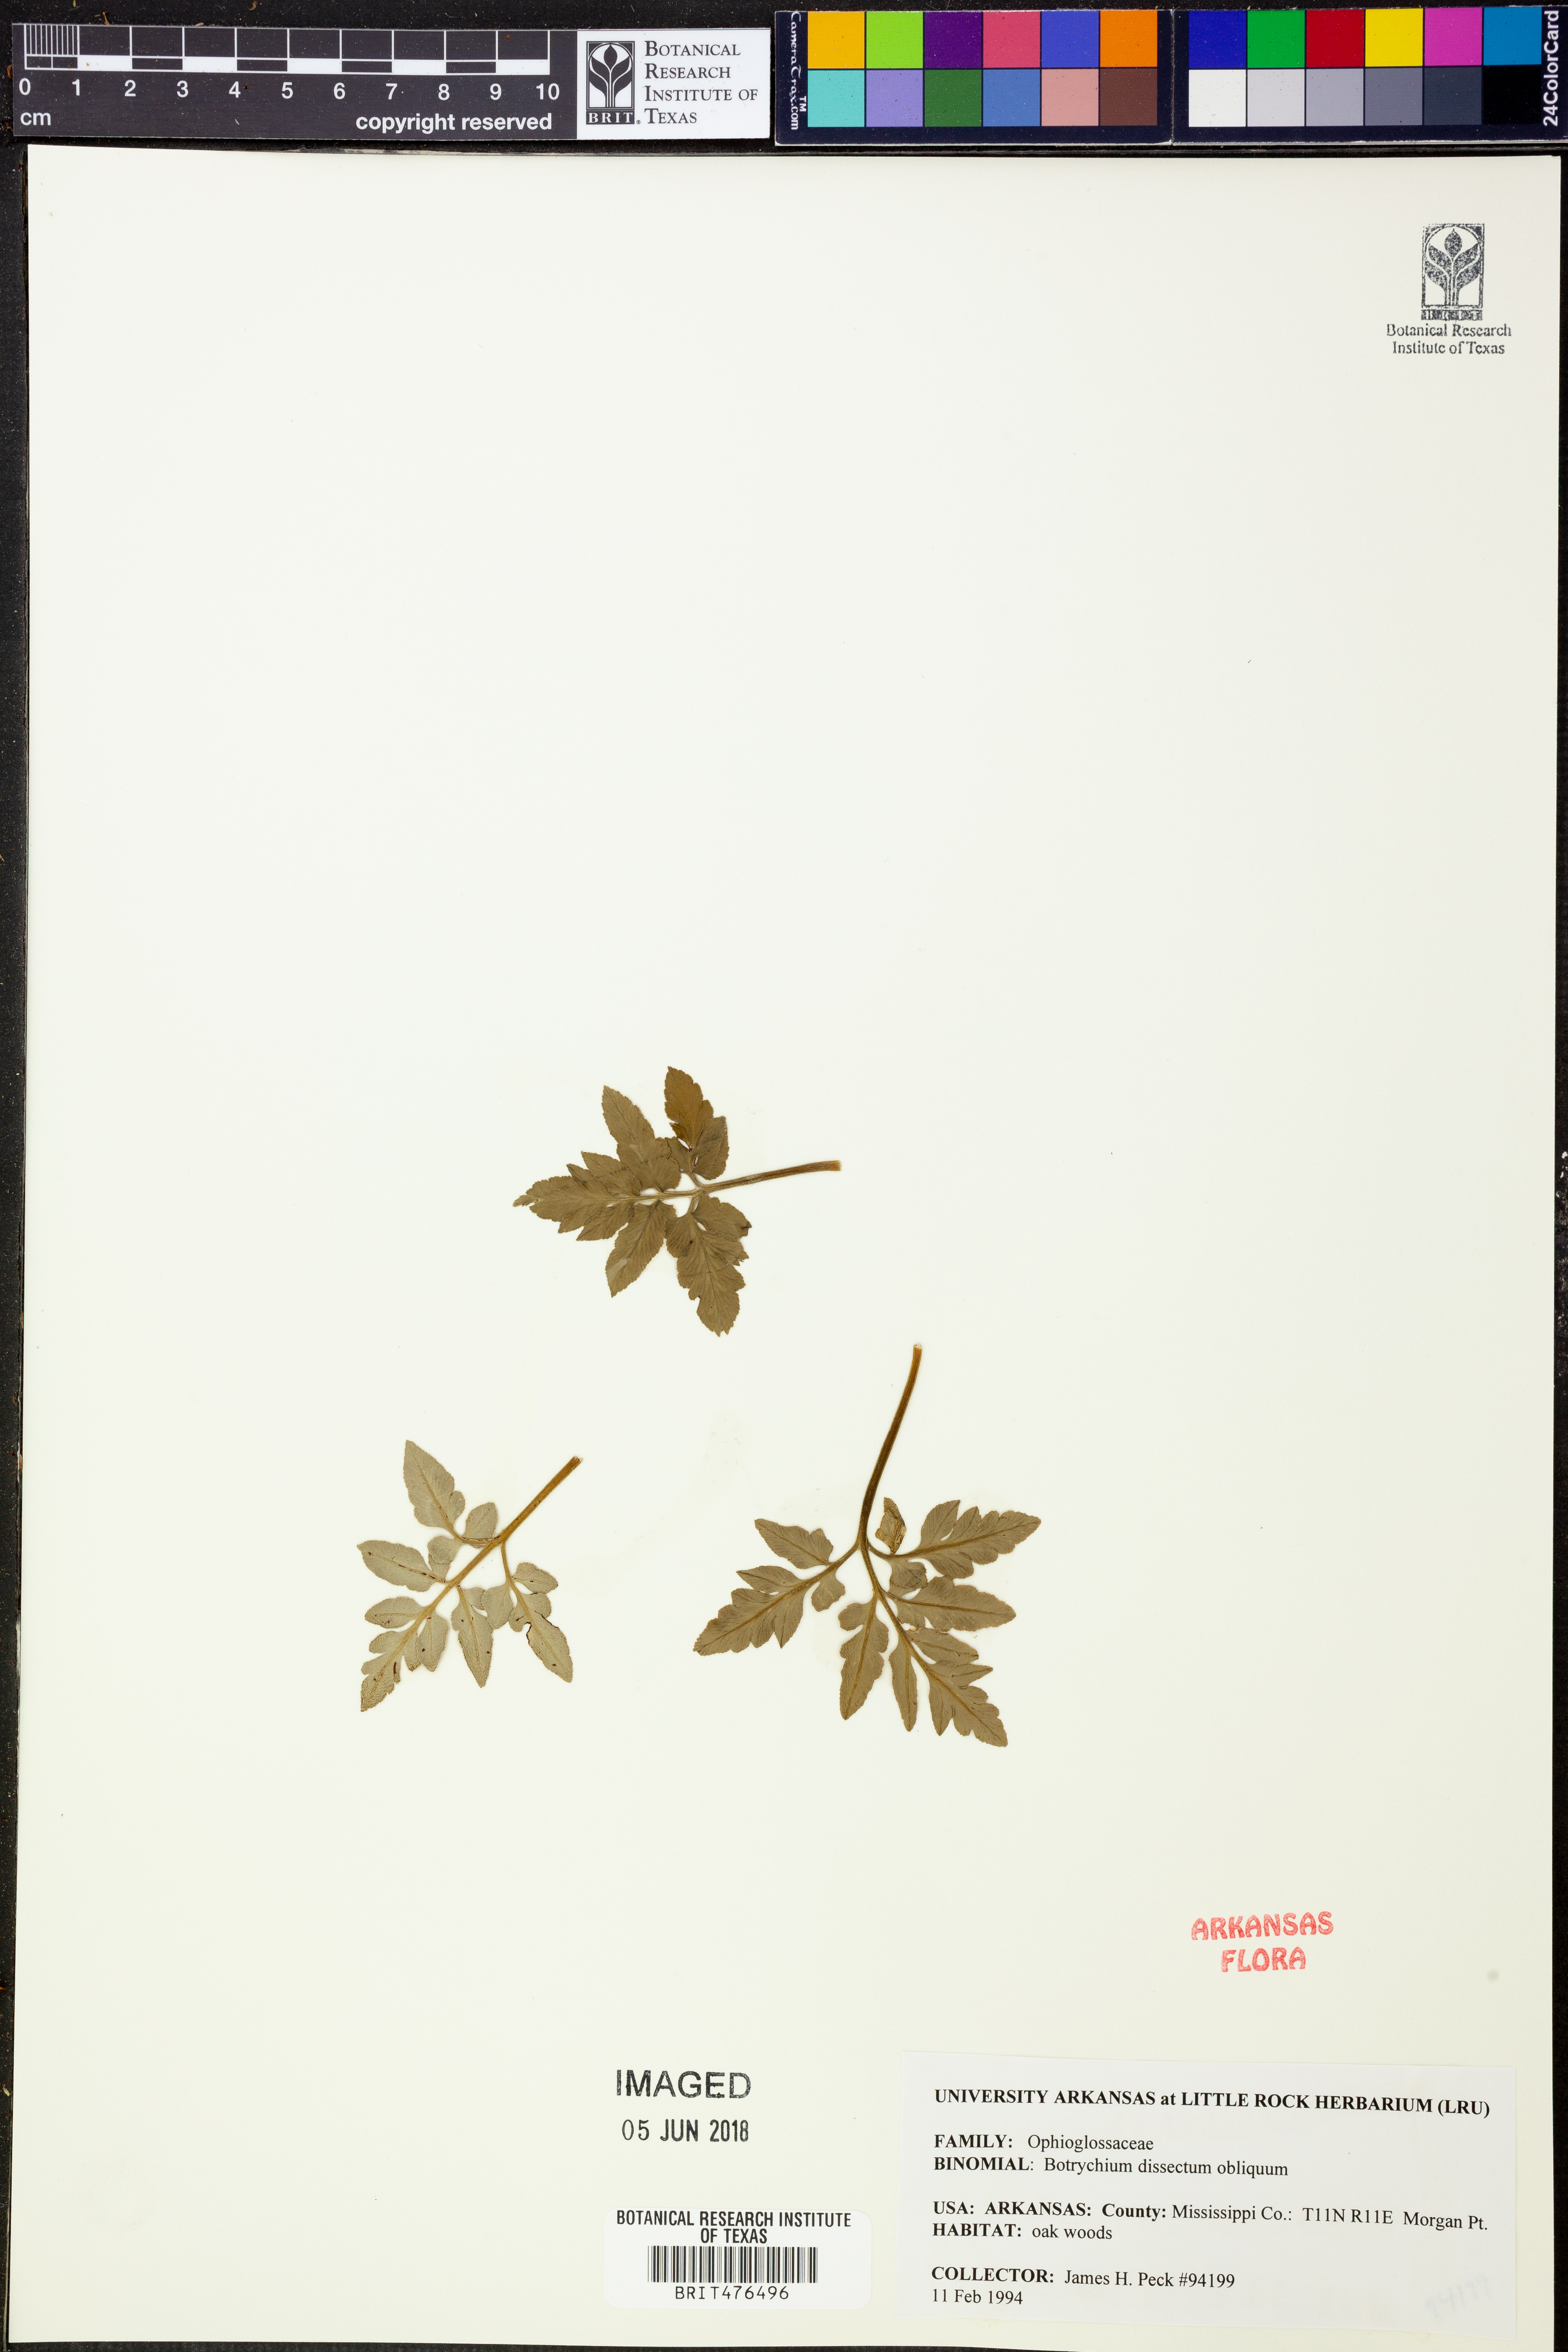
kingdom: Plantae
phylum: Tracheophyta
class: Polypodiopsida
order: Ophioglossales
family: Ophioglossaceae
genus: Sceptridium
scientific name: Sceptridium dissectum
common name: Cut-leaved grapefern
